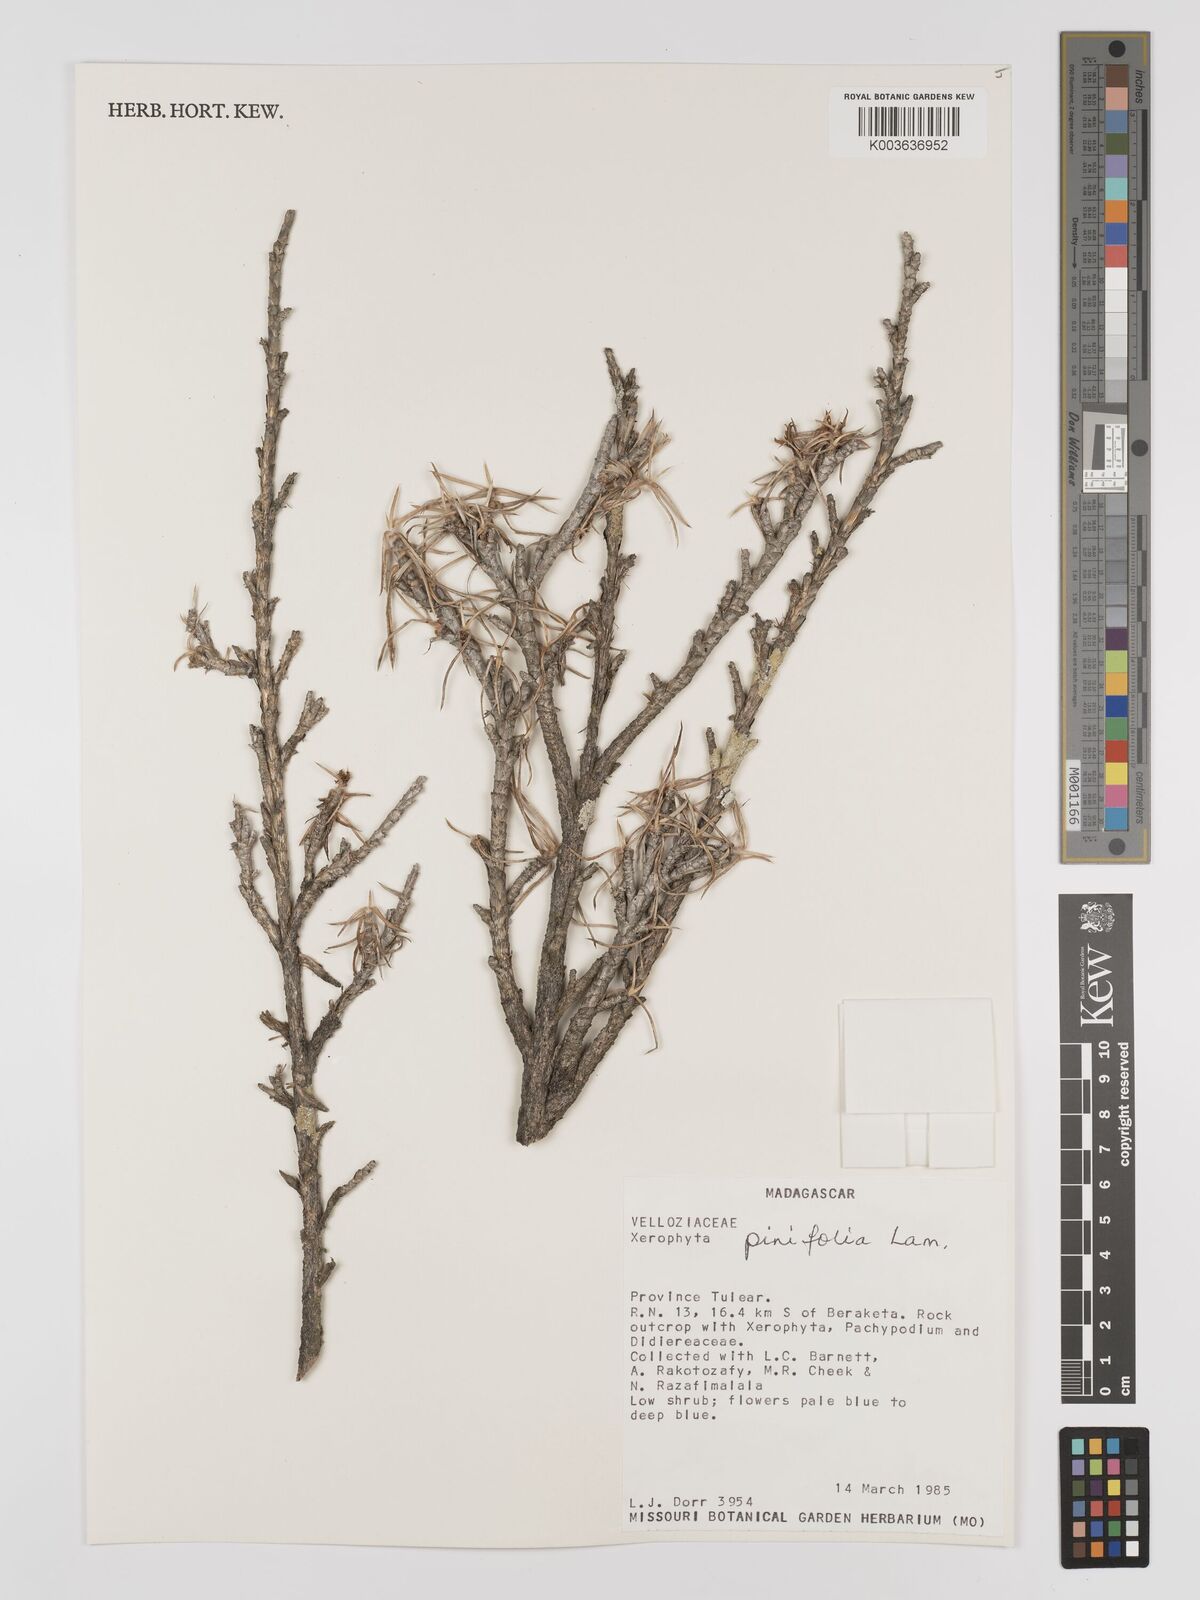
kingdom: Plantae
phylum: Tracheophyta
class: Liliopsida
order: Pandanales
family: Velloziaceae
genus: Xerophyta
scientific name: Xerophyta pinifolia
